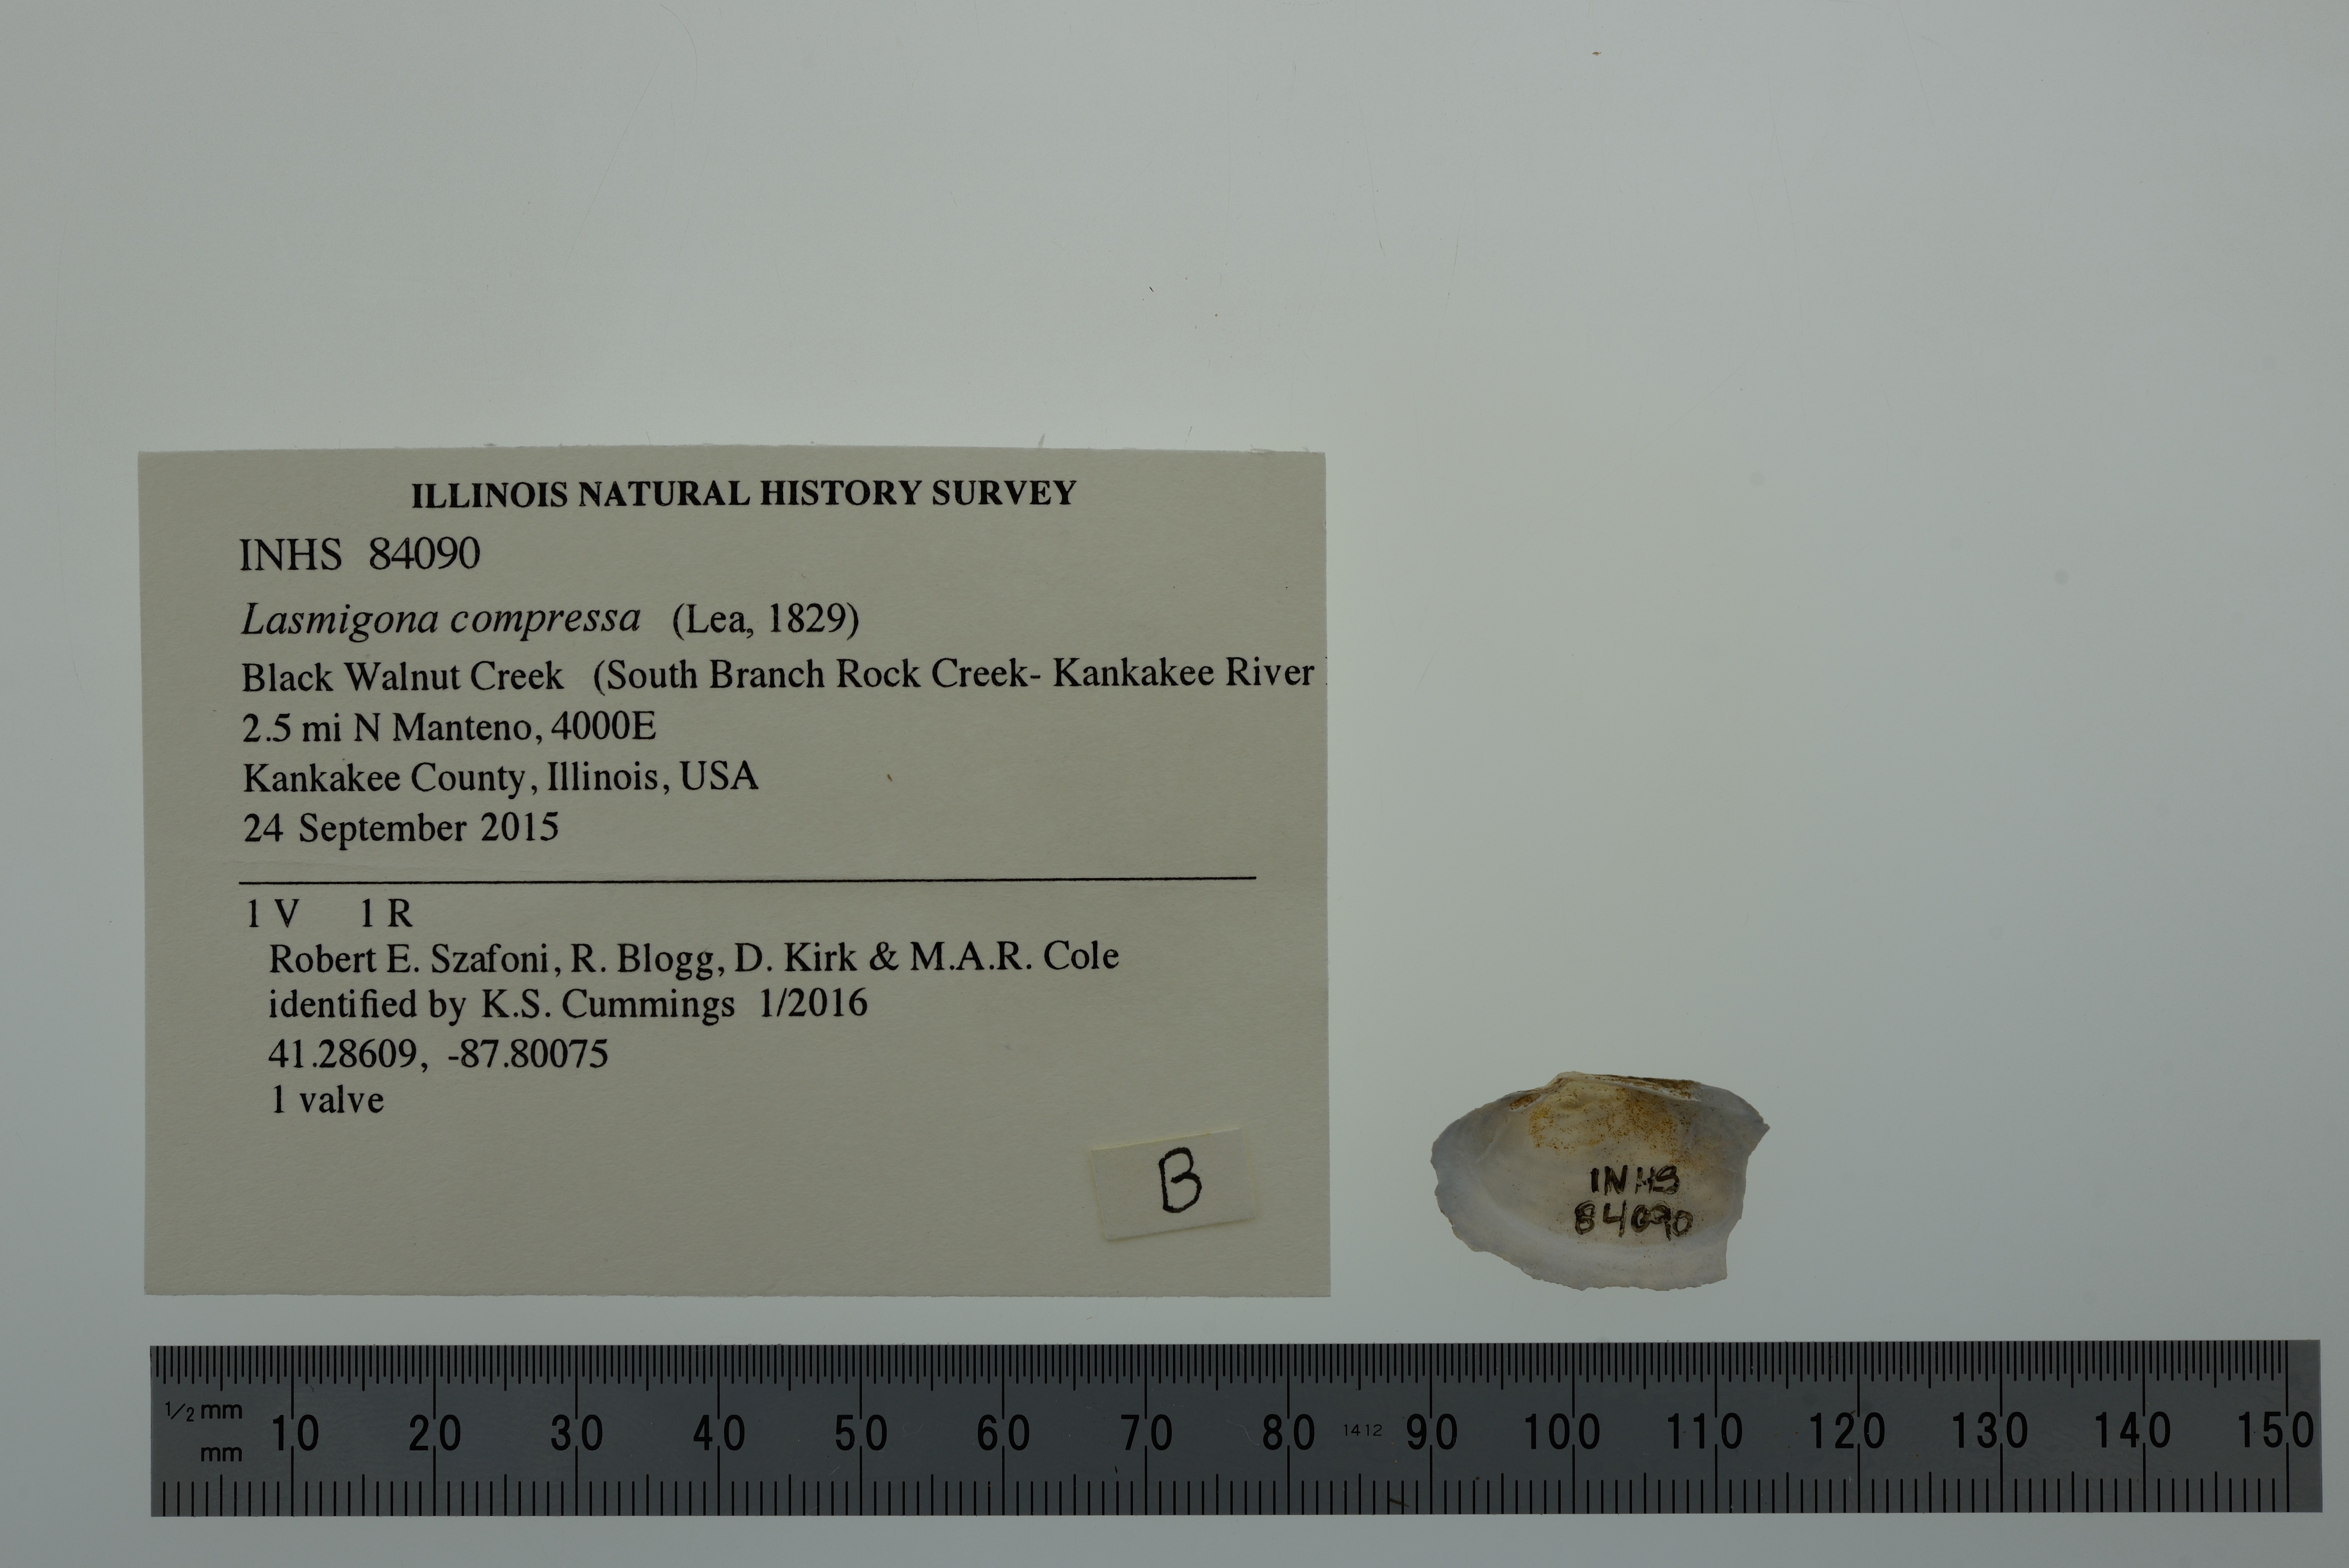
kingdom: Animalia
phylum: Mollusca
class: Bivalvia
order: Cardiida
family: Tellinidae
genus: Leporimetis
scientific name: Leporimetis obesa
